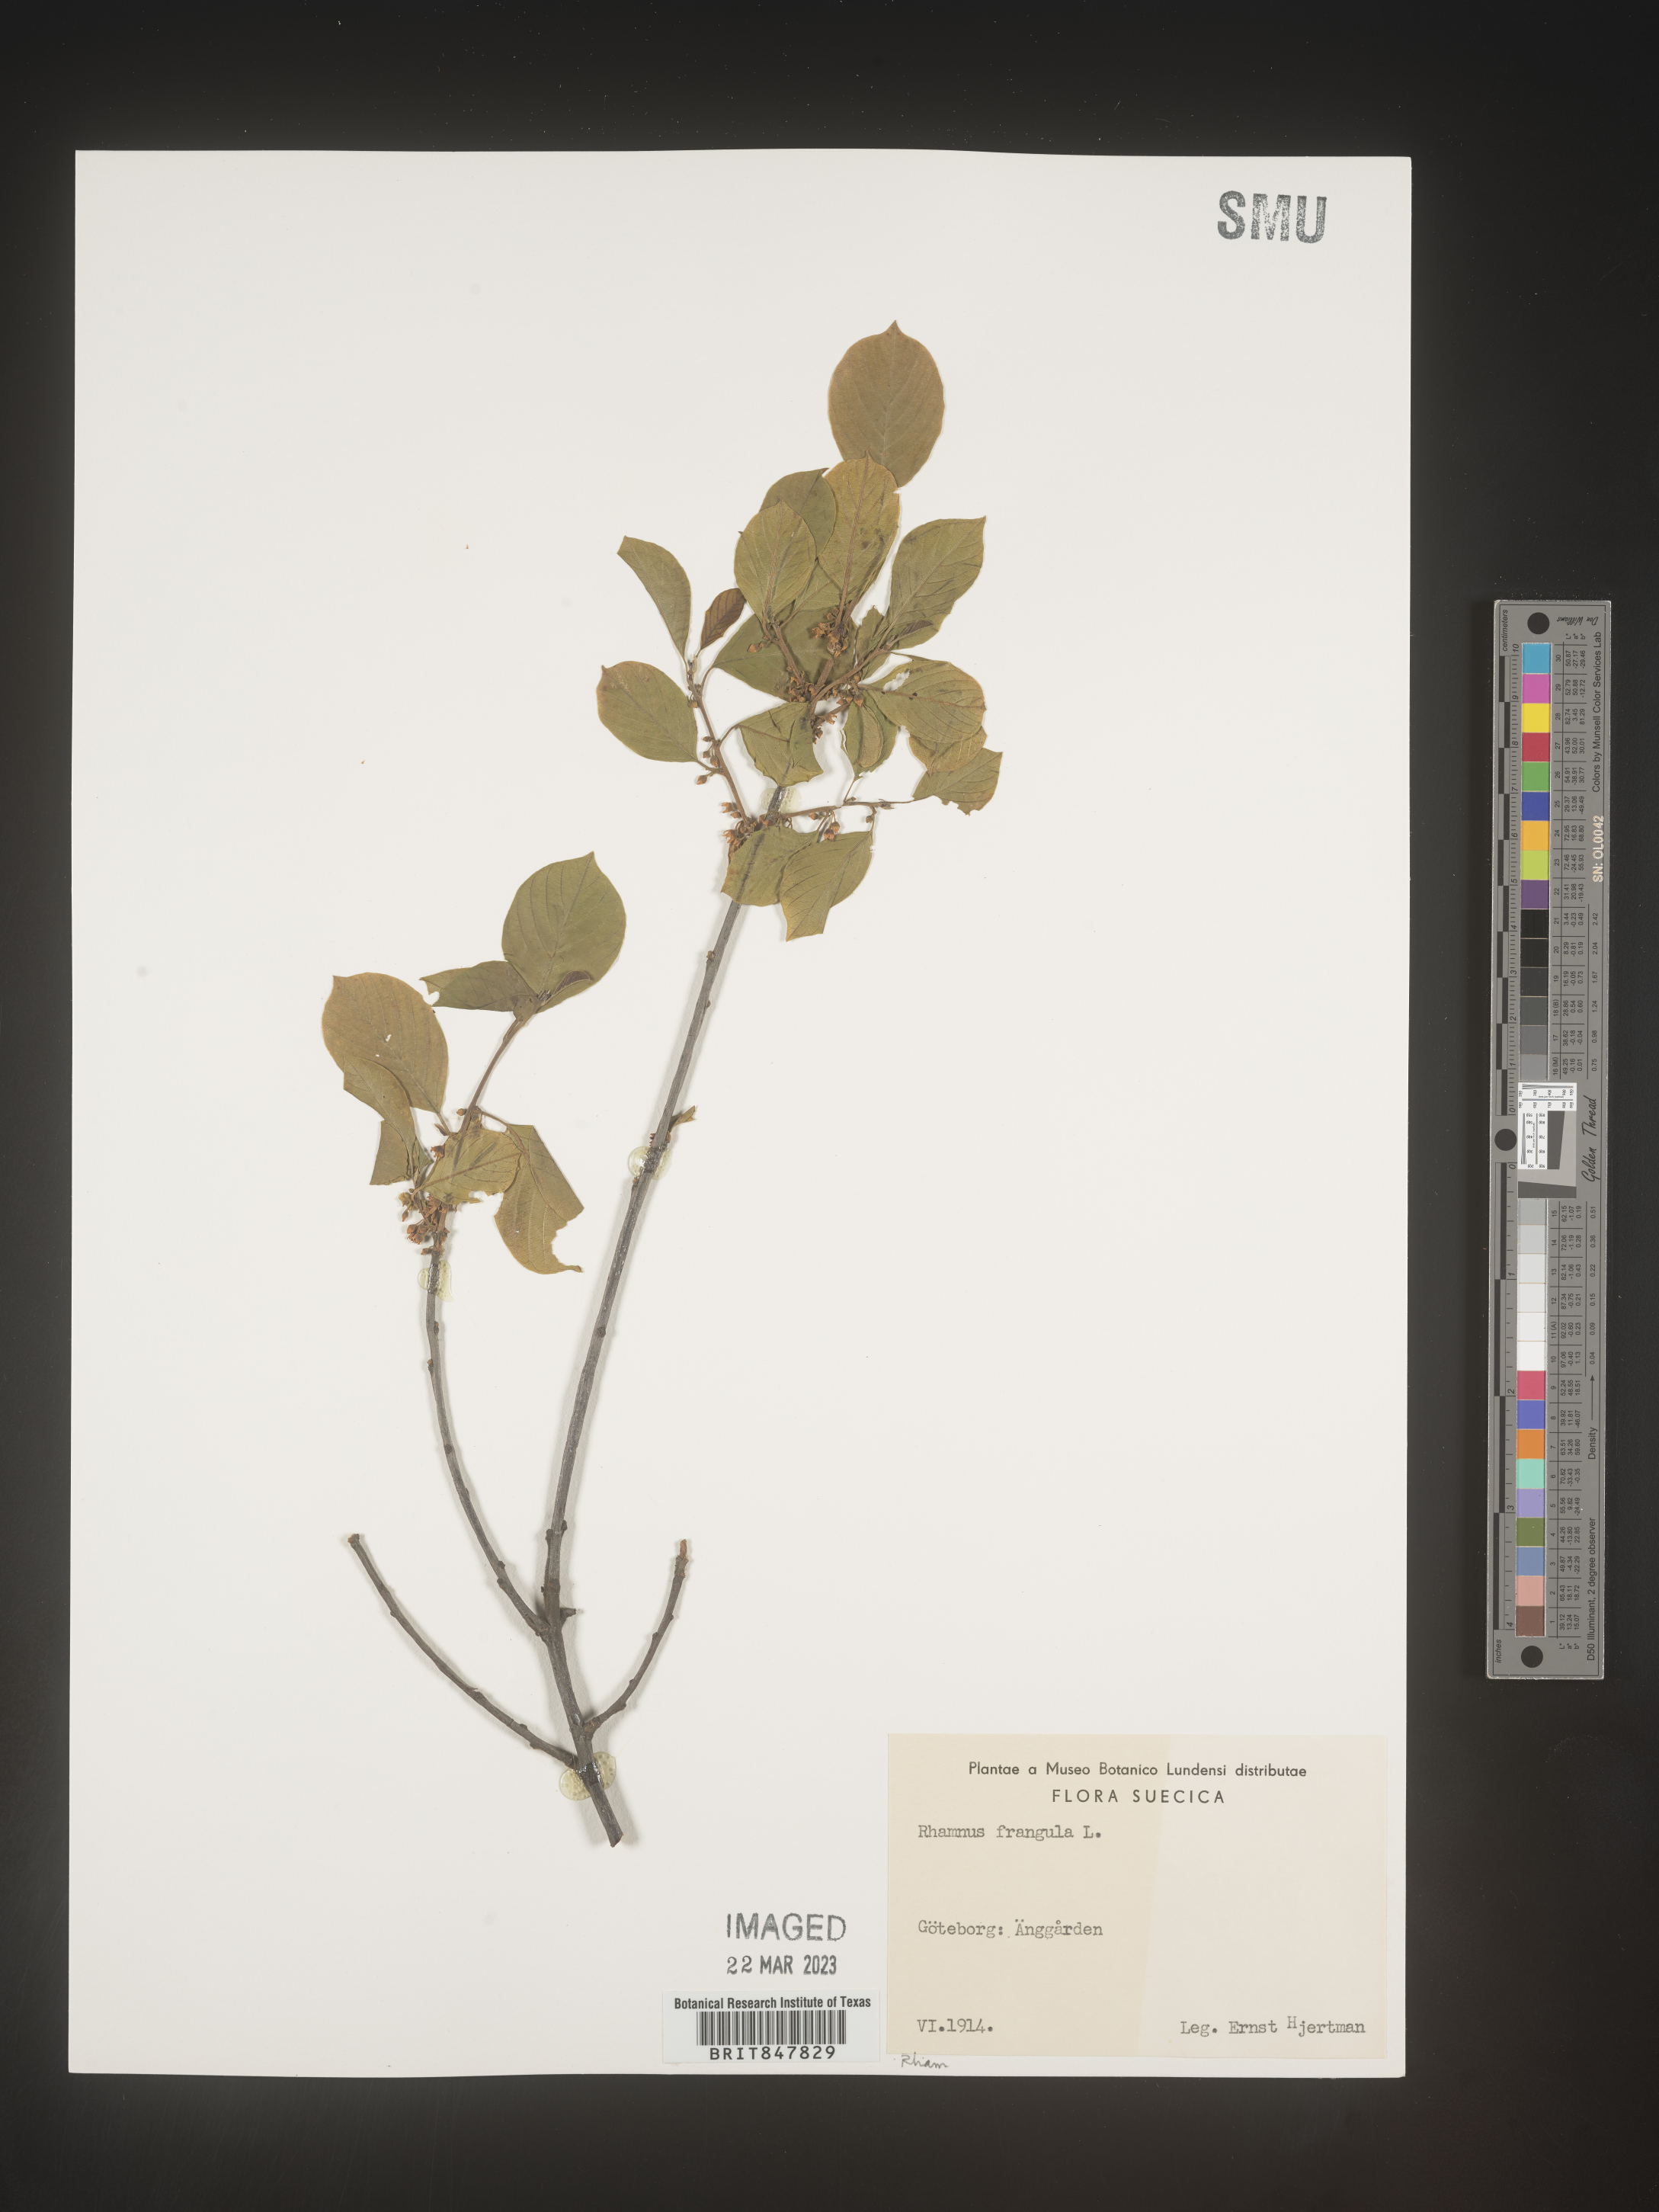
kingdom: Plantae
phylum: Tracheophyta
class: Magnoliopsida
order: Rosales
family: Rhamnaceae
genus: Rhamnus
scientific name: Rhamnus
